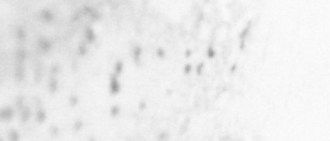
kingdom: Animalia
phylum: Chordata
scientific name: Chordata
